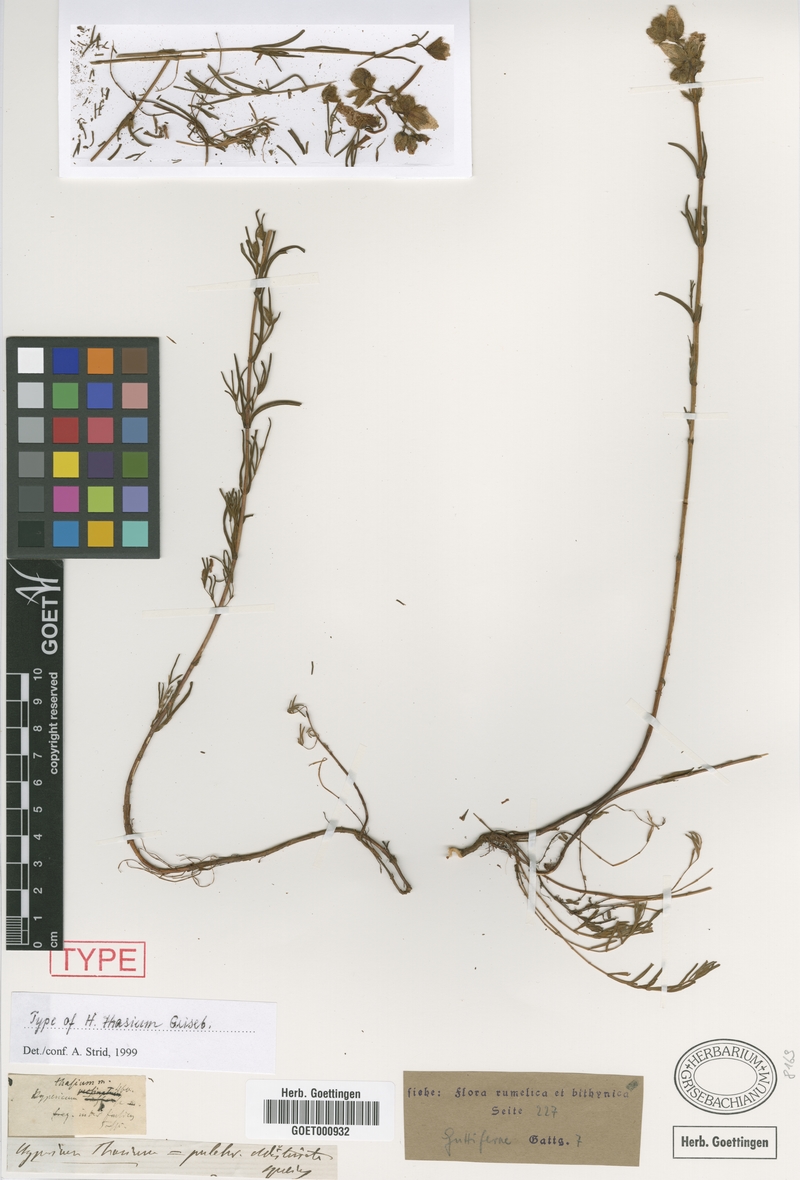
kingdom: Plantae
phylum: Tracheophyta
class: Magnoliopsida
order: Malpighiales
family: Hypericaceae
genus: Hypericum
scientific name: Hypericum thasium
